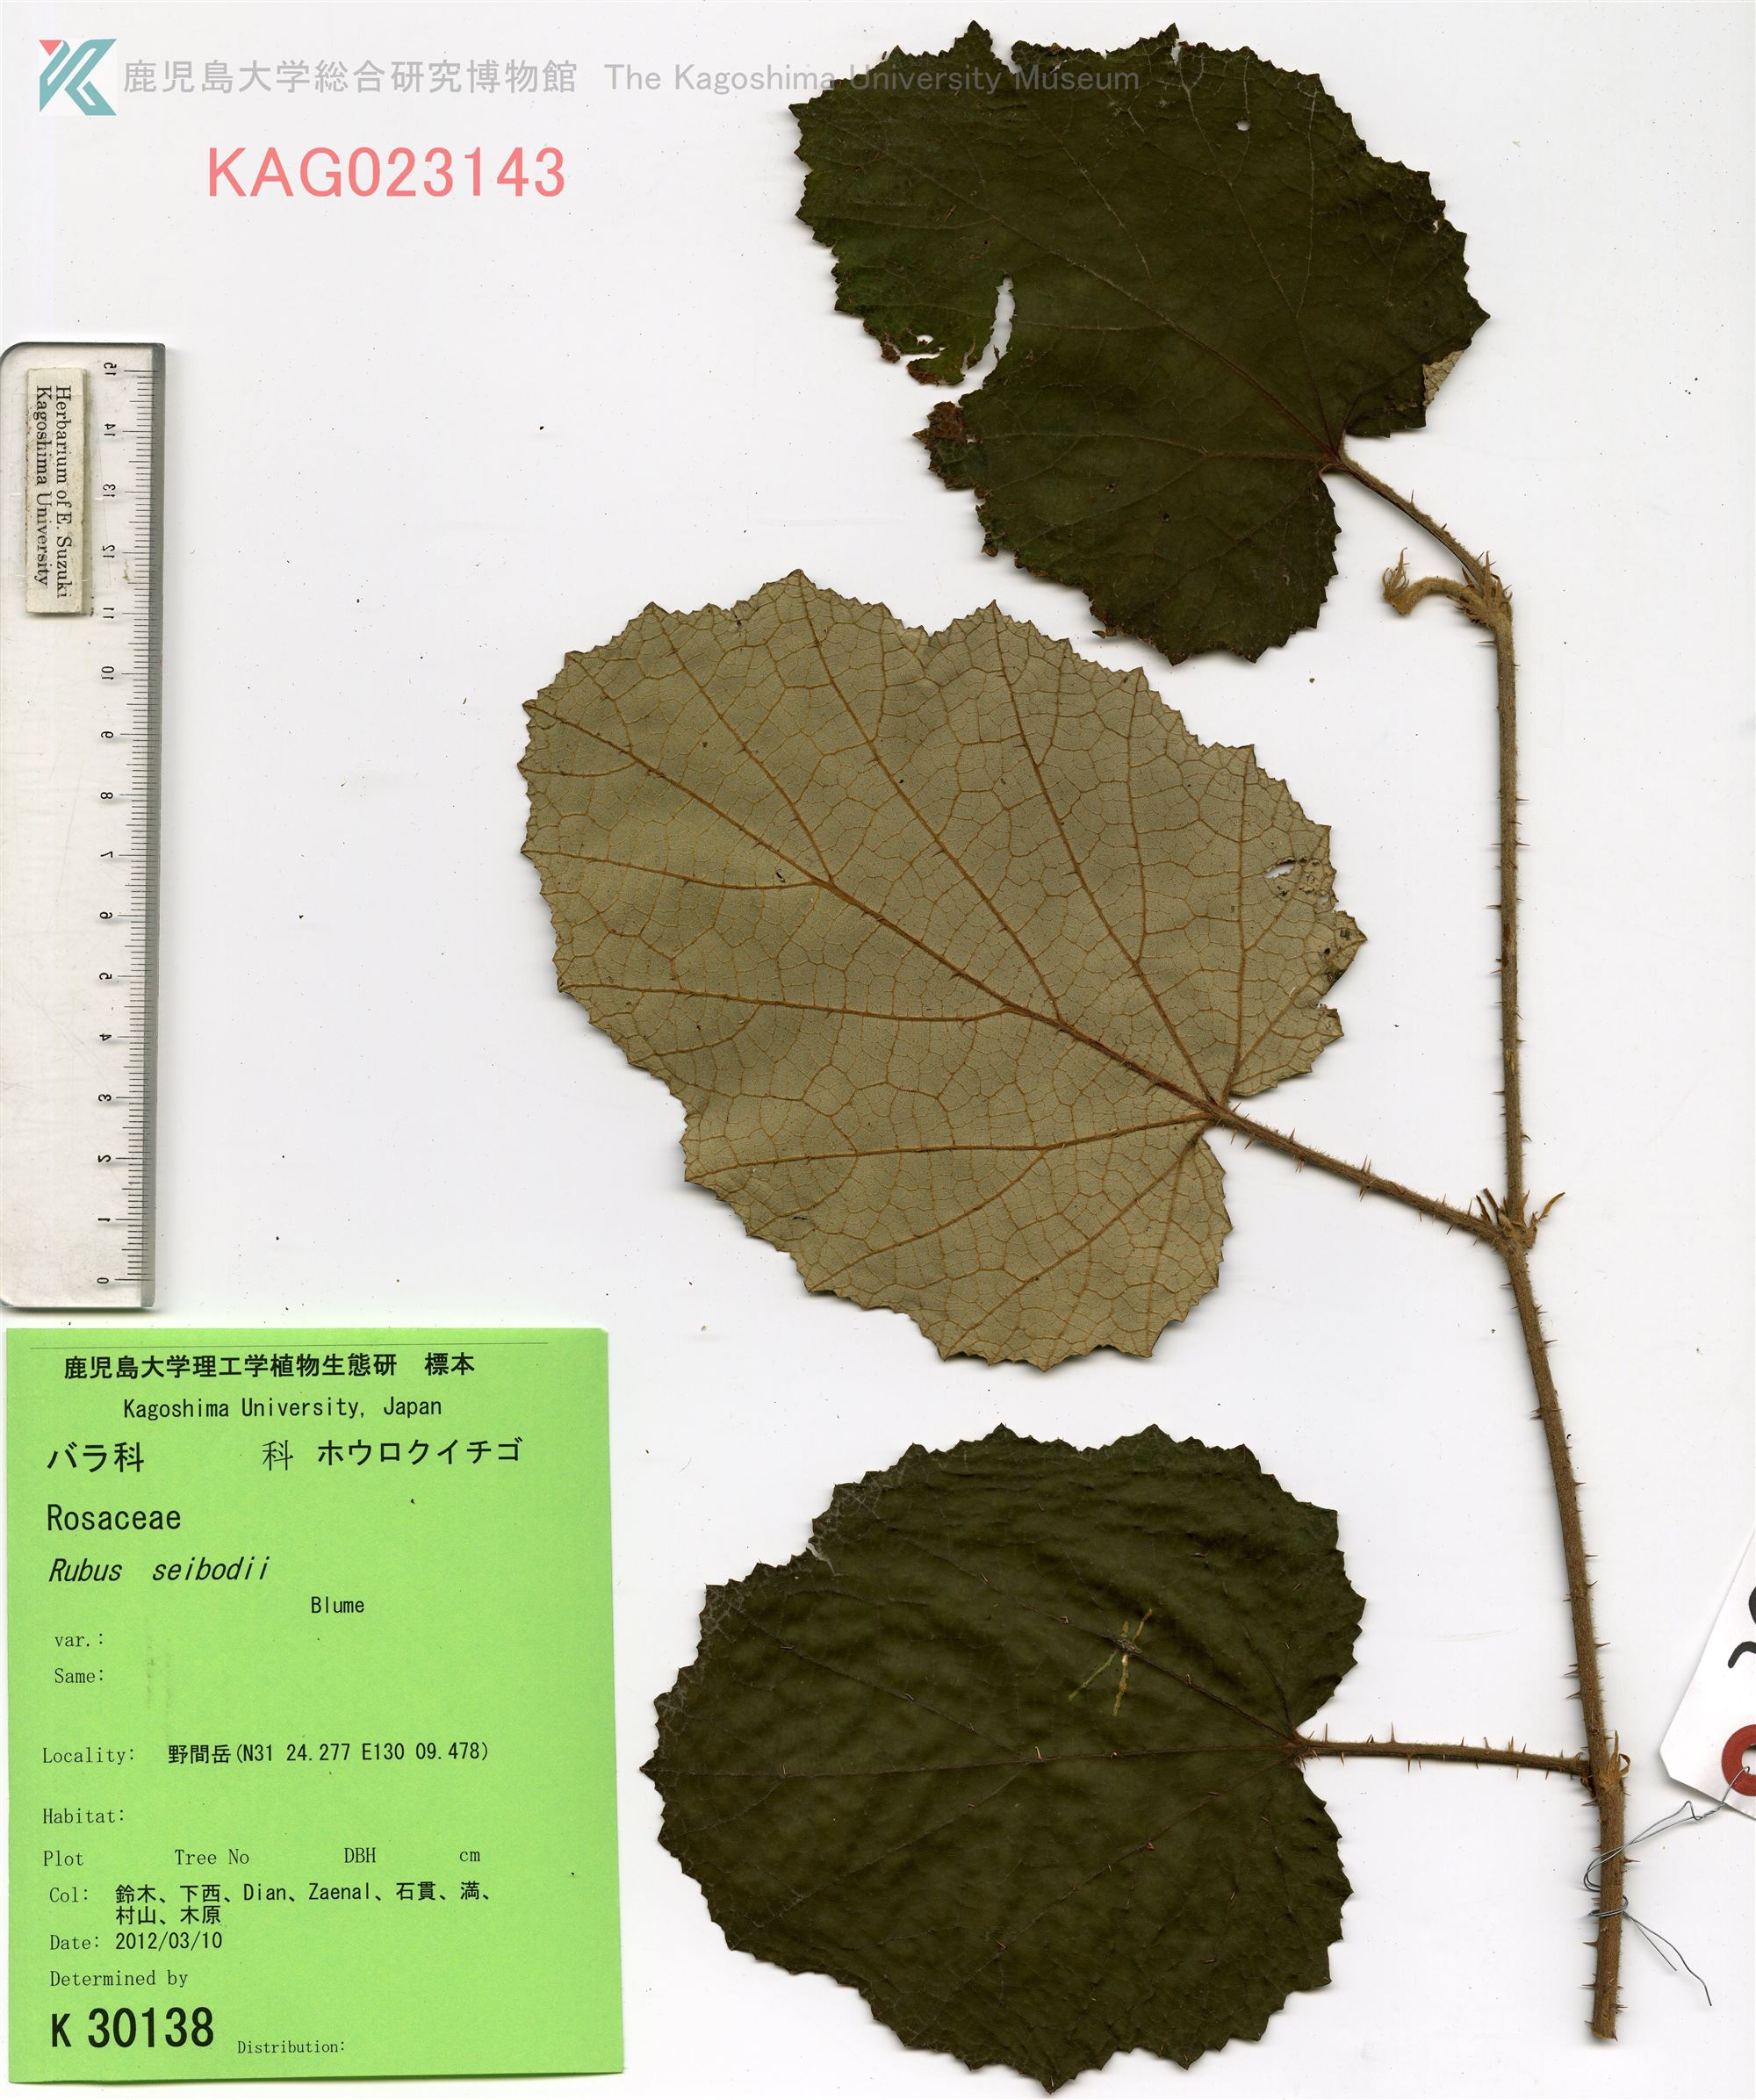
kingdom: Plantae
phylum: Tracheophyta
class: Magnoliopsida
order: Rosales
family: Rosaceae
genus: Rubus
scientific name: Rubus sieboldii
